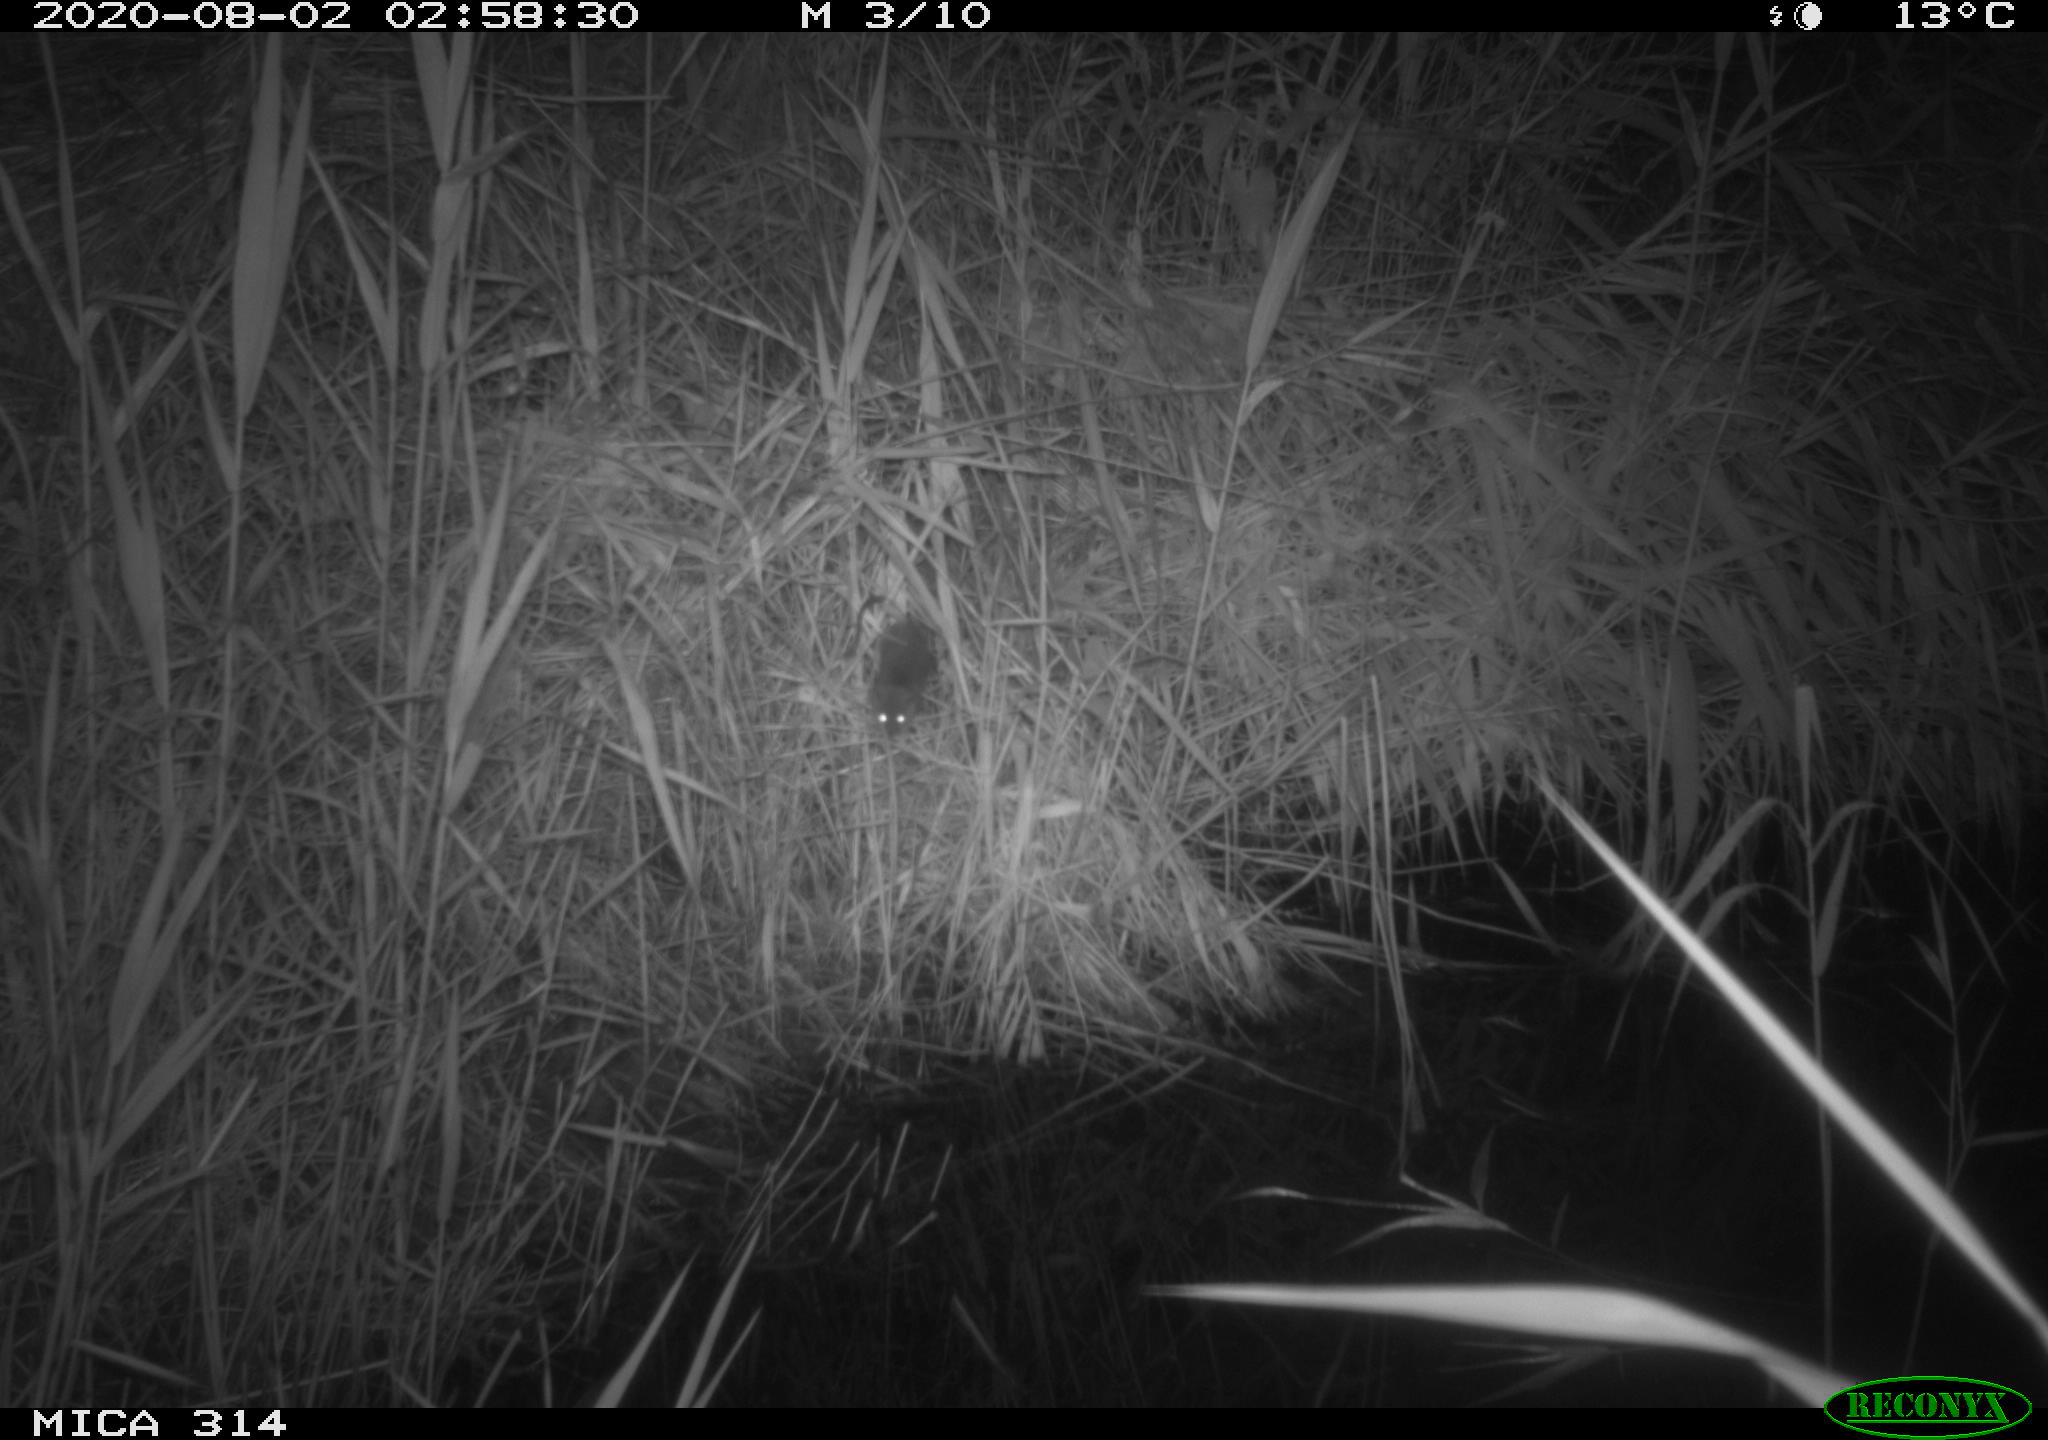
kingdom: Animalia
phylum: Chordata
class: Mammalia
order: Rodentia
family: Muridae
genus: Rattus
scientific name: Rattus norvegicus
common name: Brown rat
